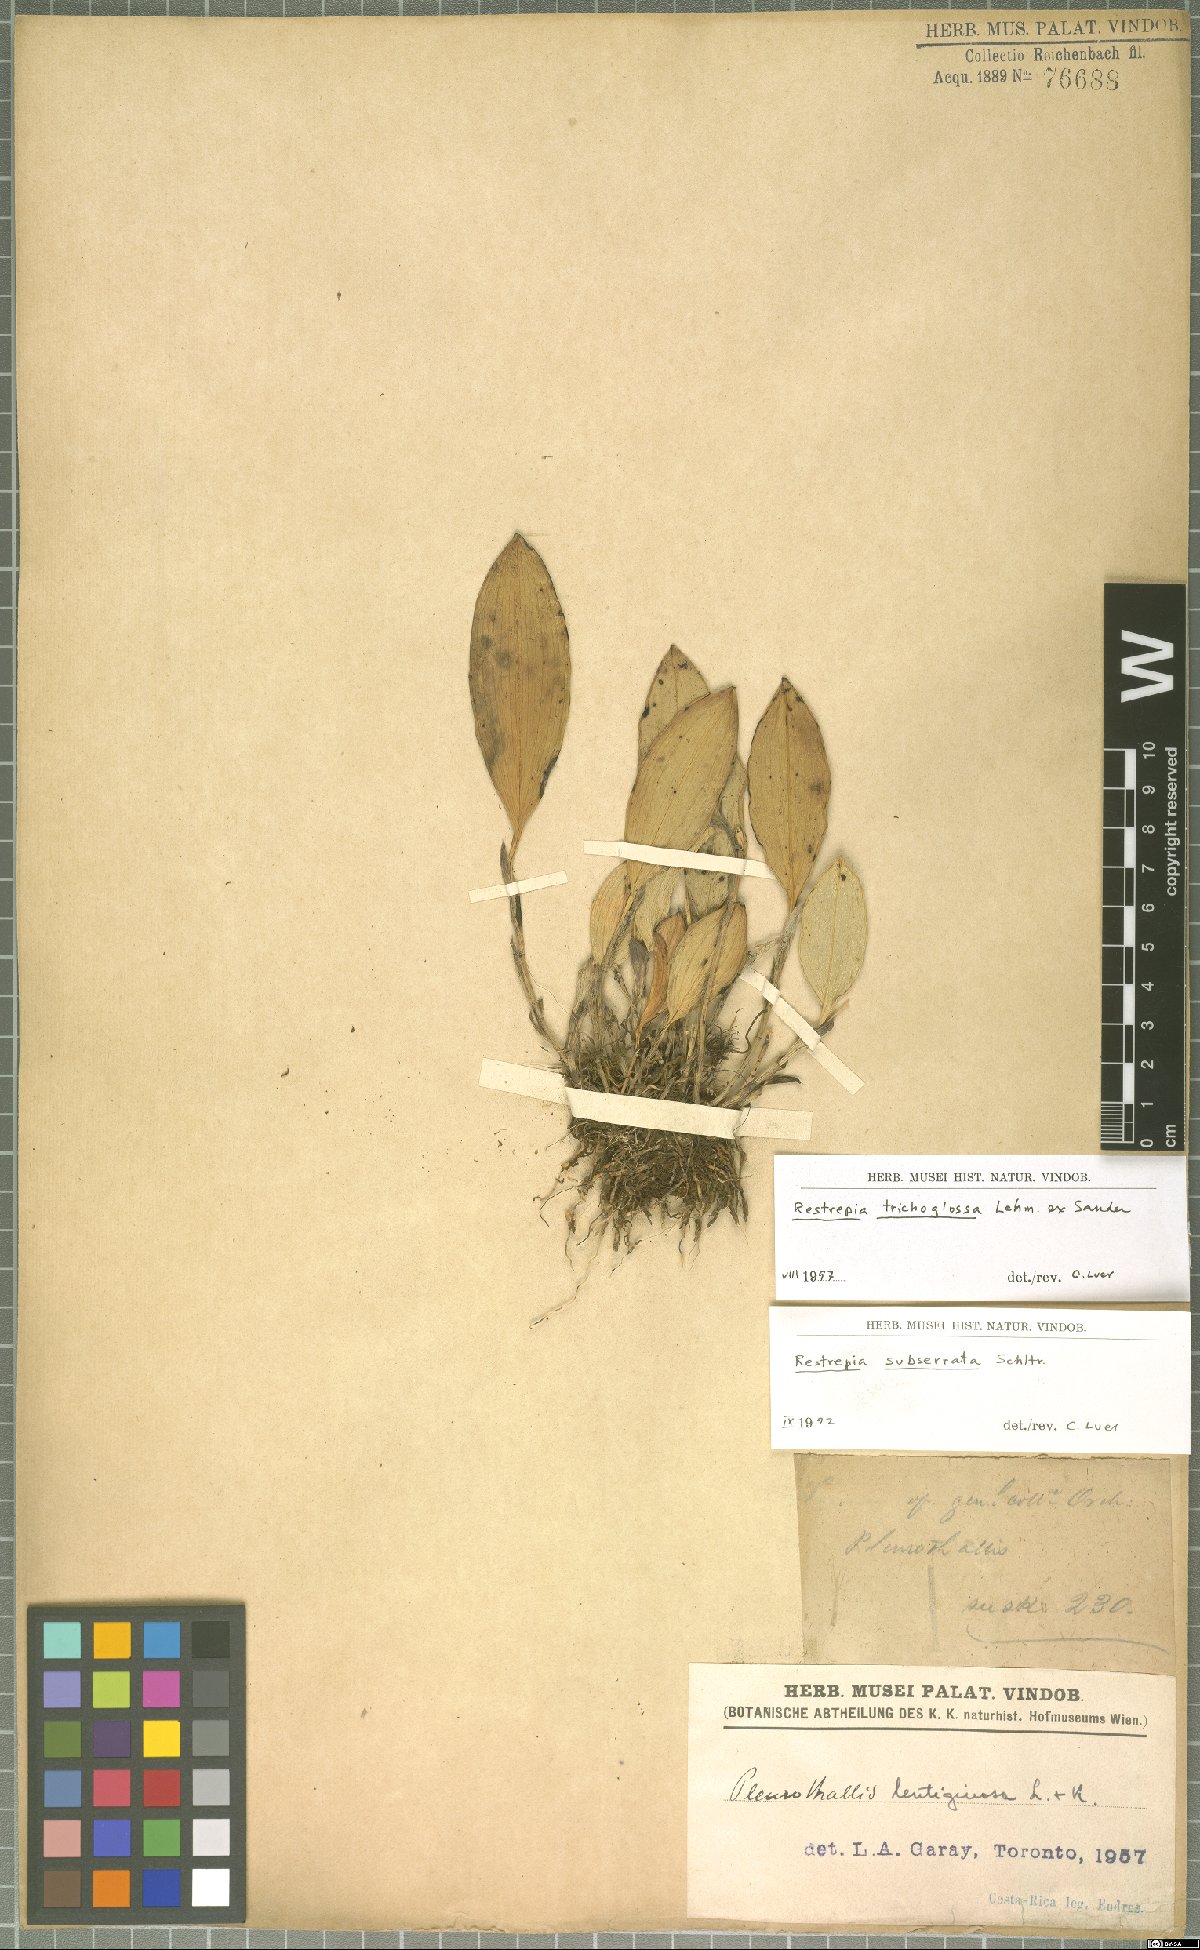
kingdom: Plantae
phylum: Tracheophyta
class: Liliopsida
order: Asparagales
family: Orchidaceae
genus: Restrepia
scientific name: Restrepia trichoglossa
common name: Hairy tongued restrepia
